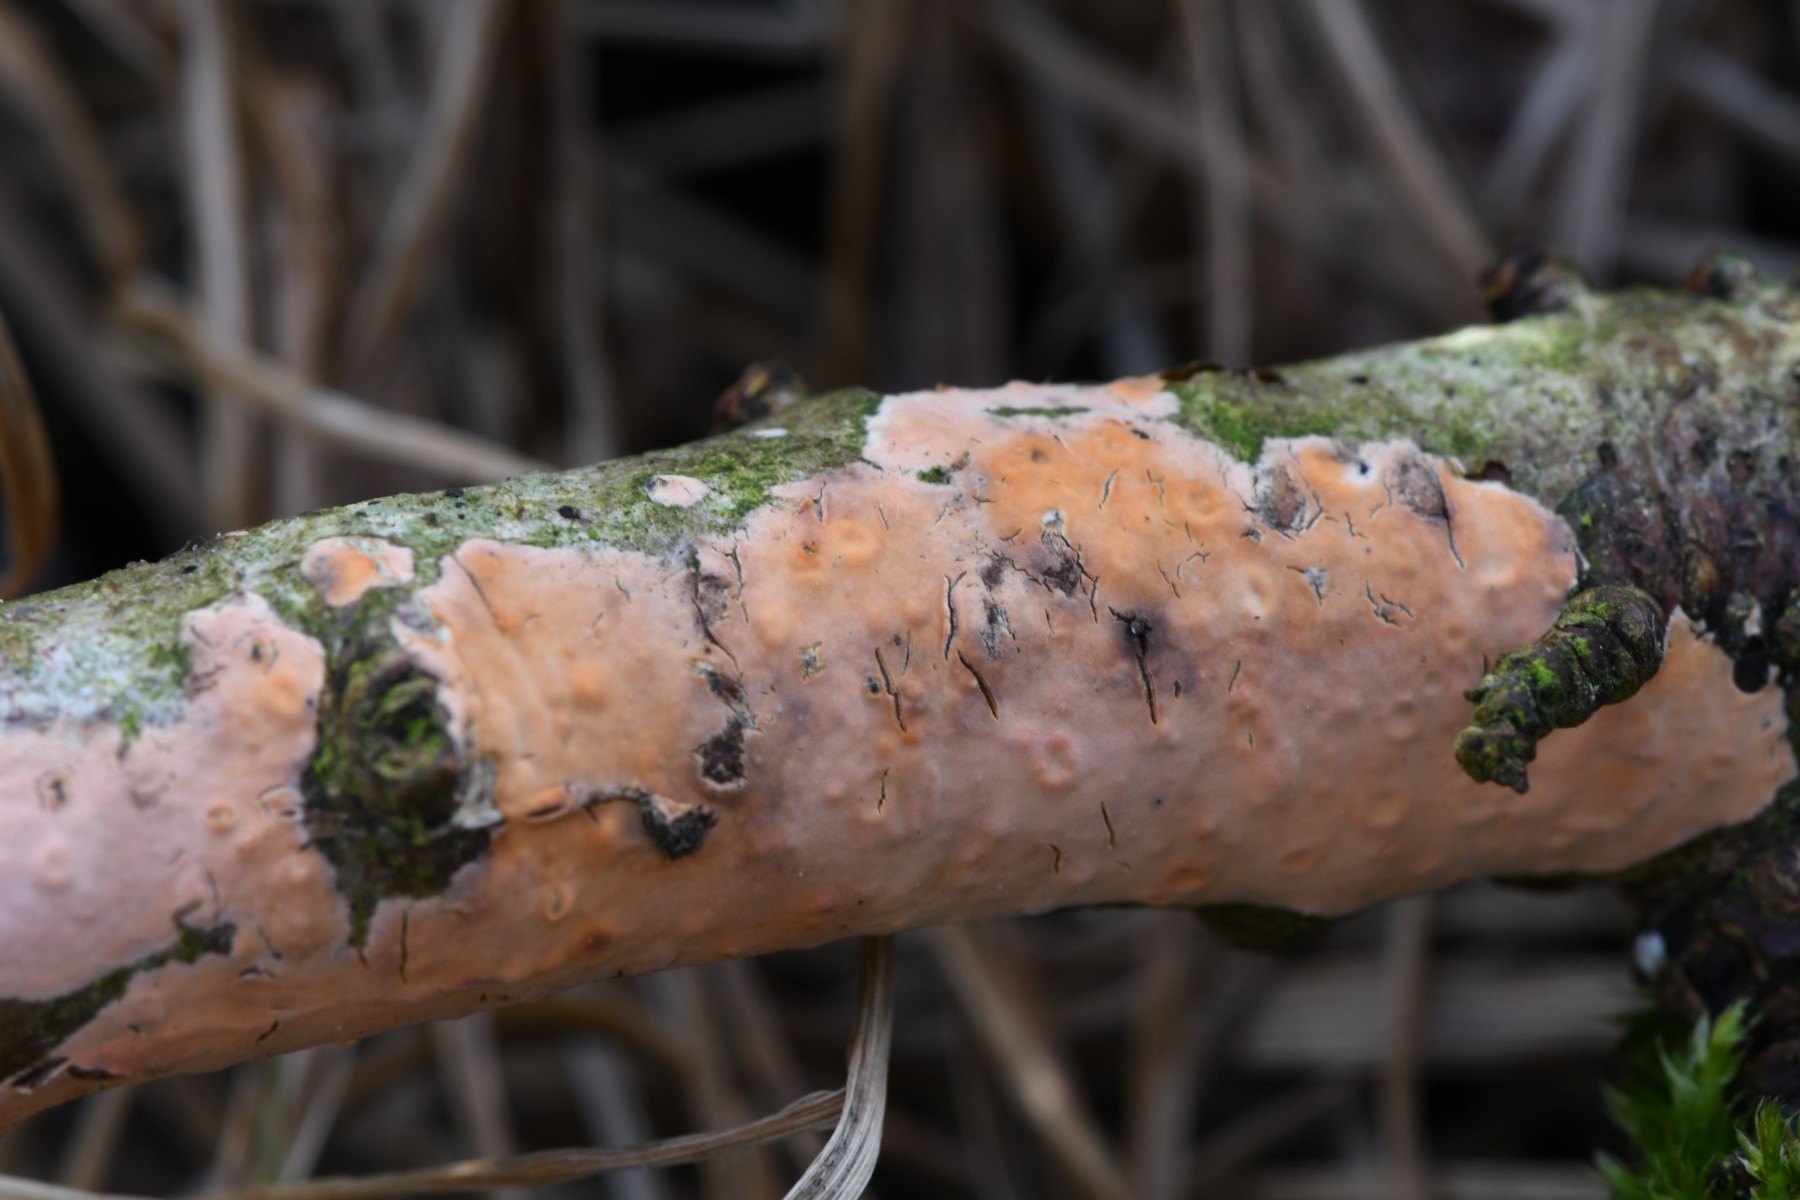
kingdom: Fungi
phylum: Basidiomycota
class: Agaricomycetes
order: Russulales
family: Peniophoraceae
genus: Peniophora
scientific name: Peniophora incarnata
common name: laksefarvet voksskind
